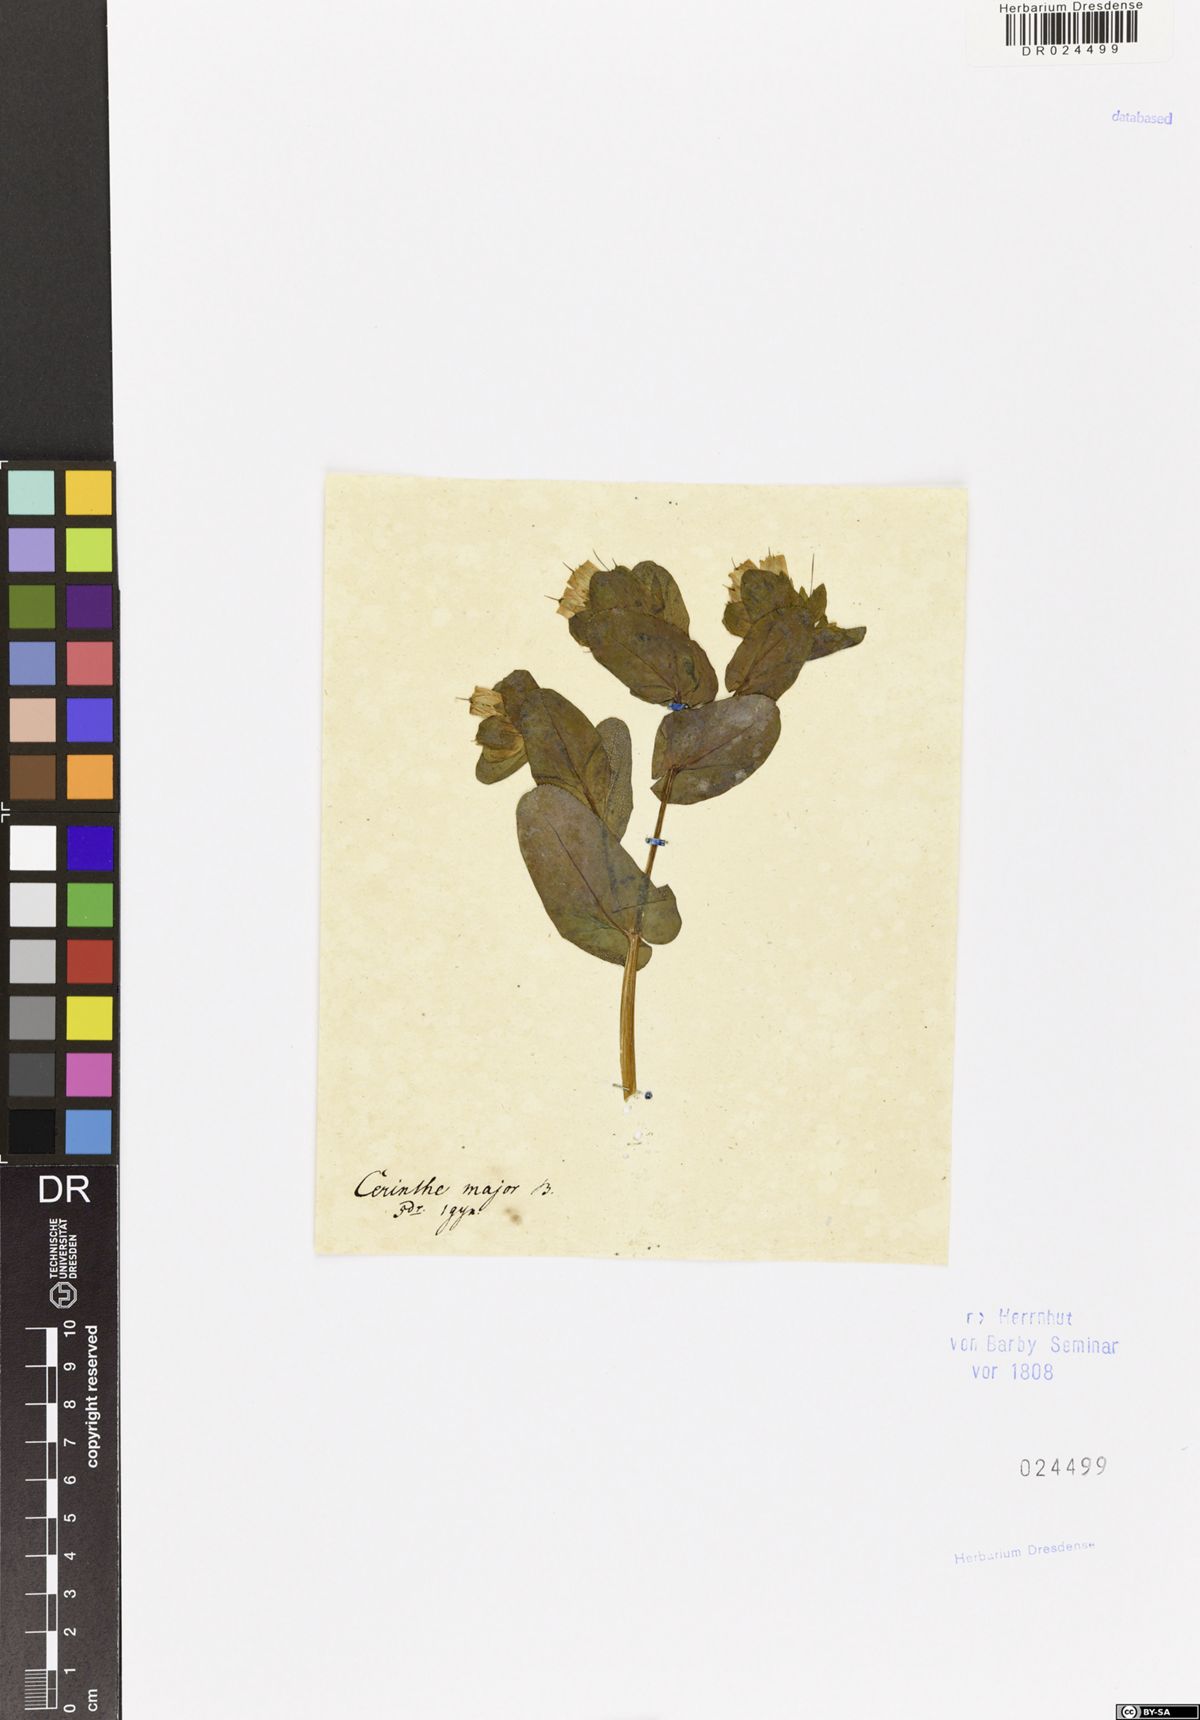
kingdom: Plantae
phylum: Tracheophyta
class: Magnoliopsida
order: Boraginales
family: Boraginaceae
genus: Cerinthe
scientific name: Cerinthe major
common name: Greater honeywort
